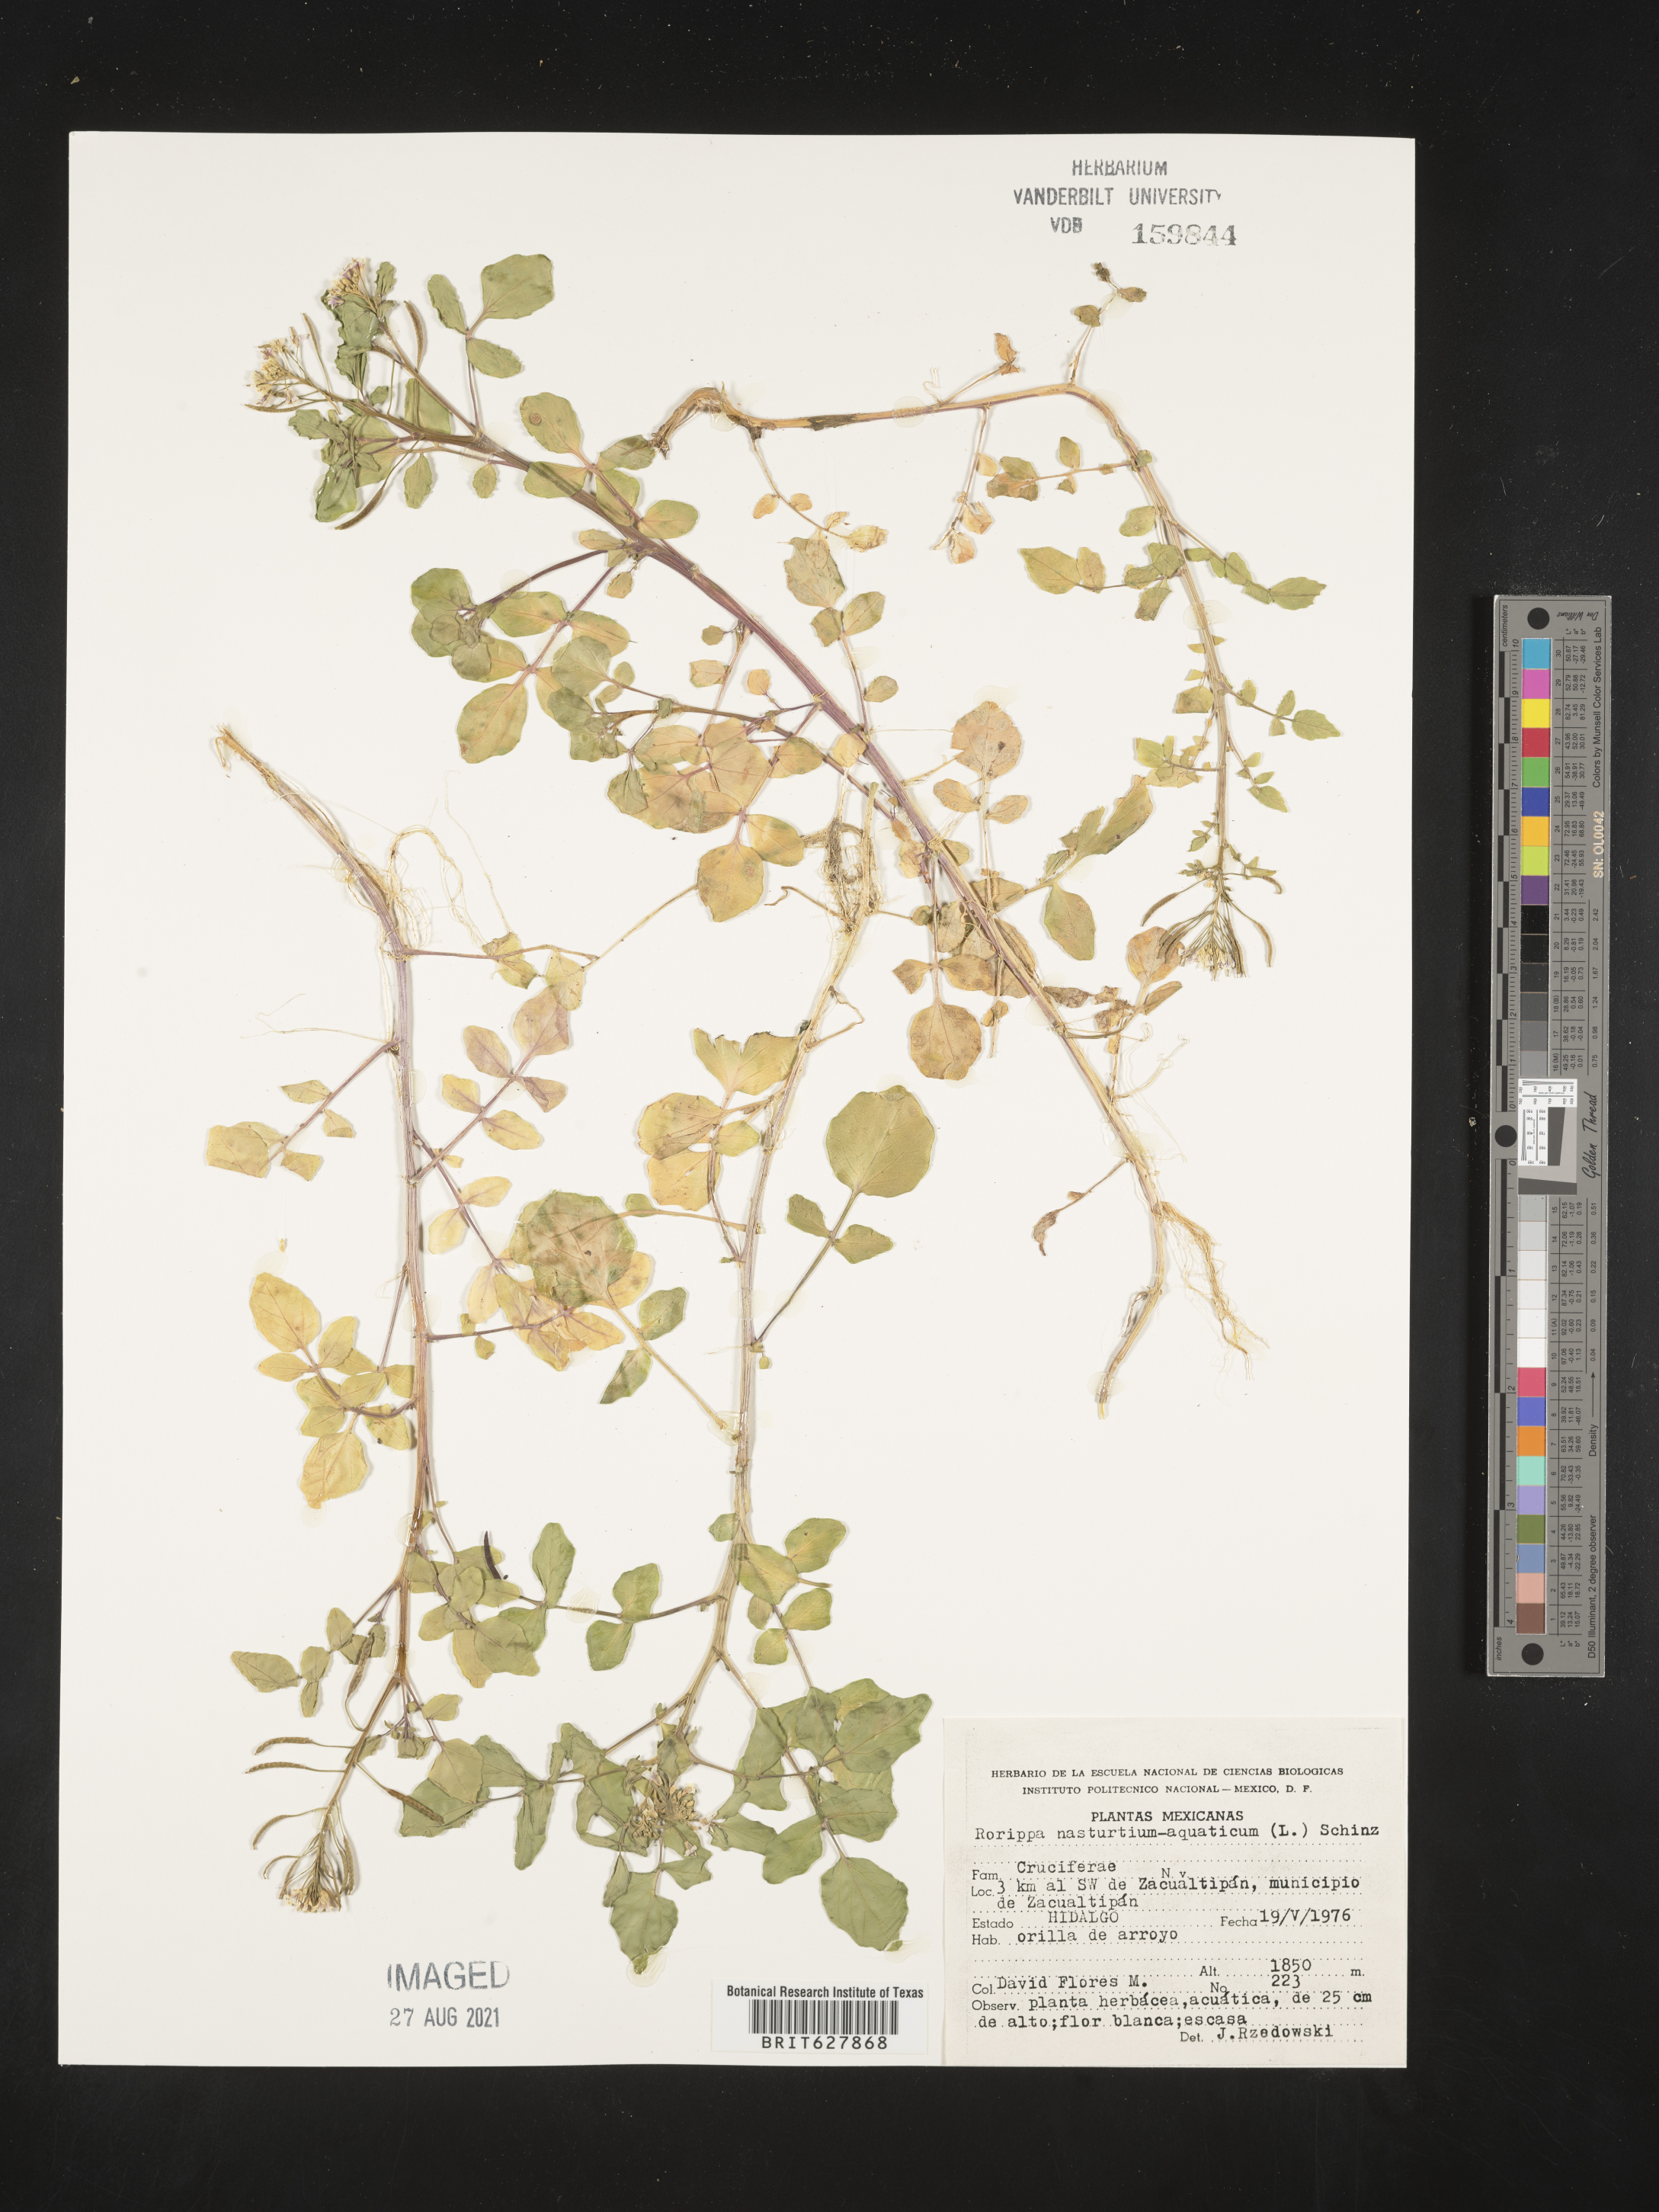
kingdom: Plantae
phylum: Tracheophyta
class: Magnoliopsida
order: Brassicales
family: Brassicaceae
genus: Rorippa
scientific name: Rorippa
